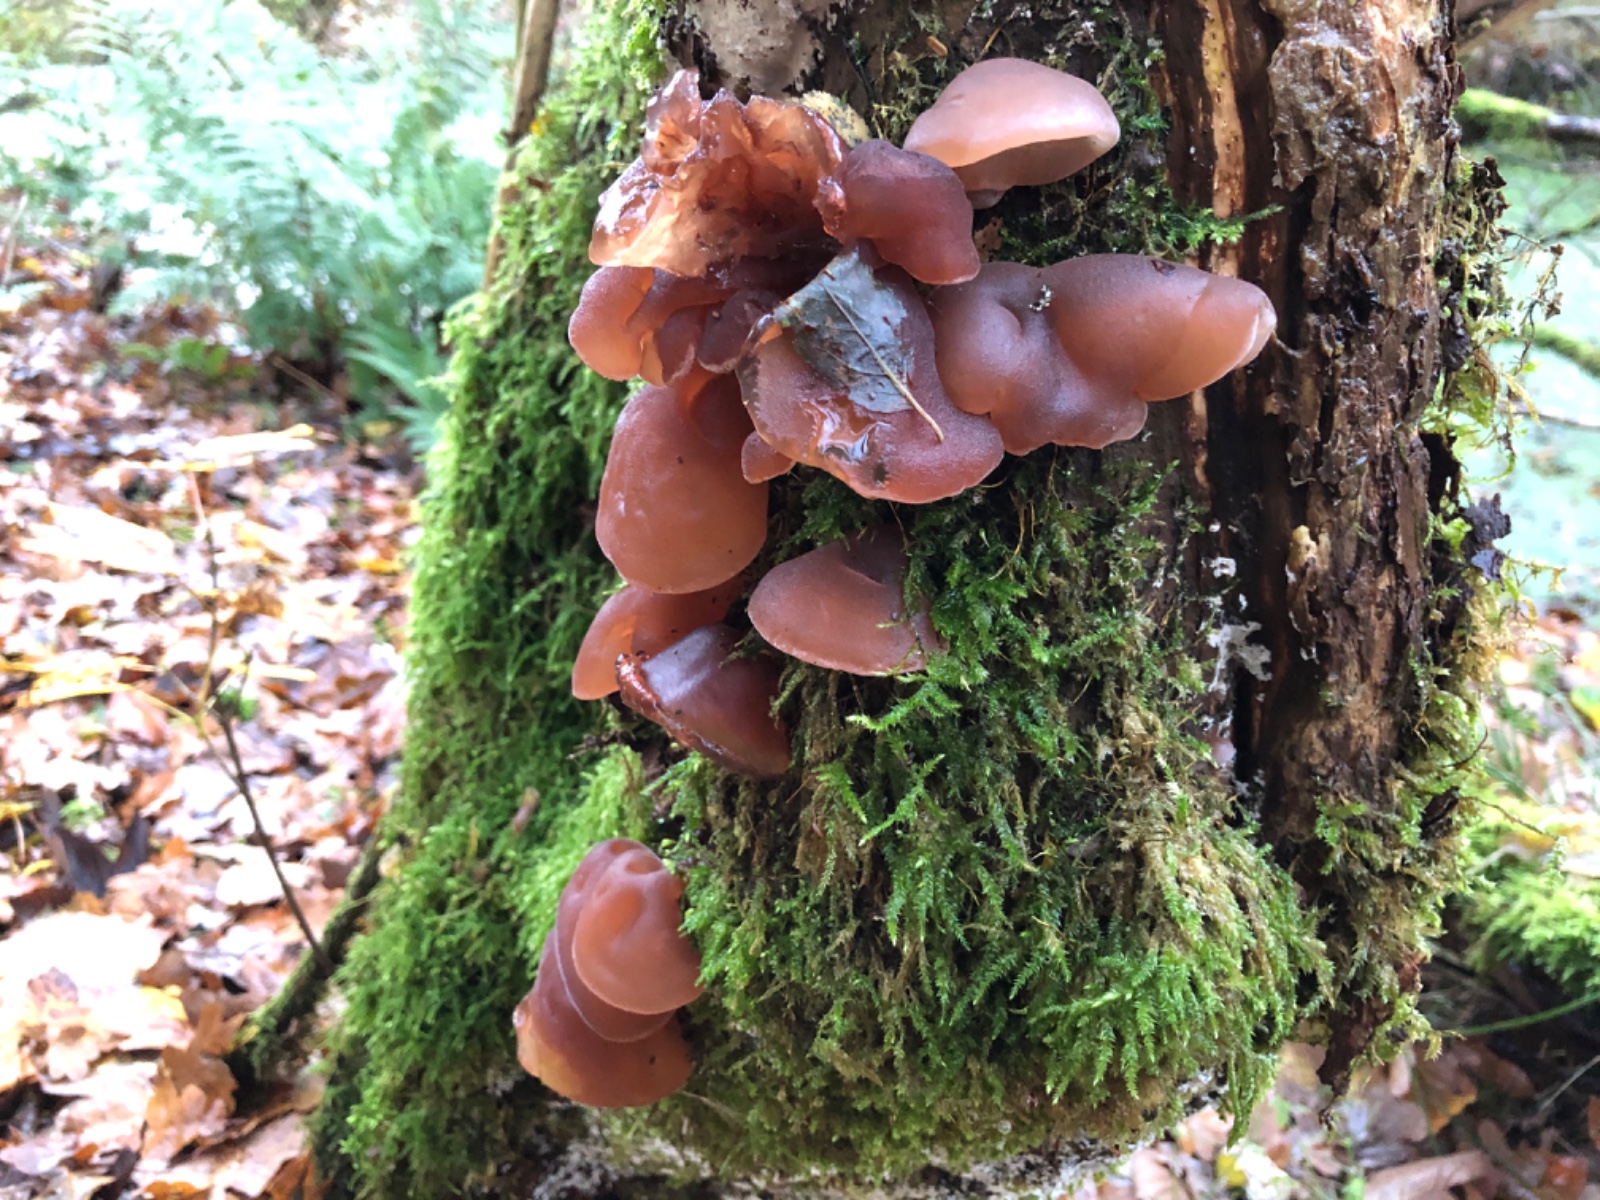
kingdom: Fungi
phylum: Basidiomycota
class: Agaricomycetes
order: Auriculariales
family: Auriculariaceae
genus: Auricularia
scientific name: Auricularia auricula-judae
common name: almindelig judasøre
